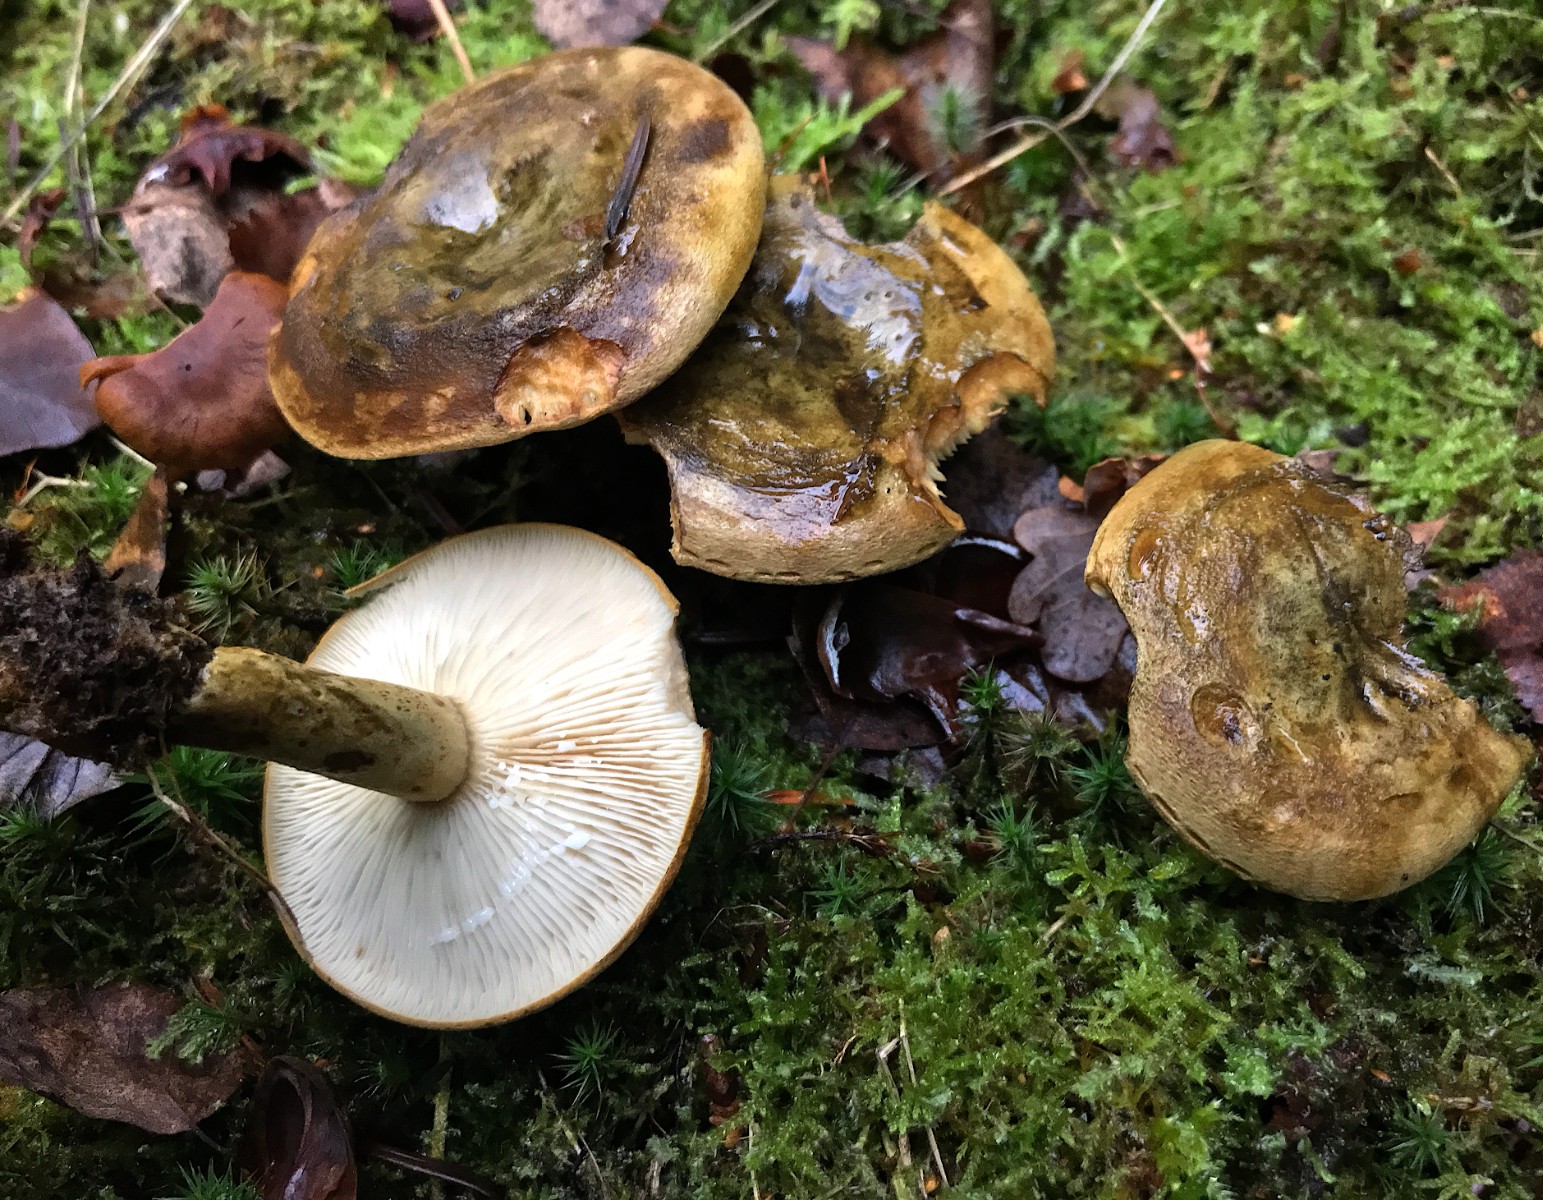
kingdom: Fungi
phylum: Basidiomycota
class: Agaricomycetes
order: Russulales
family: Russulaceae
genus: Lactarius
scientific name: Lactarius necator
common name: manddraber-mælkehat
